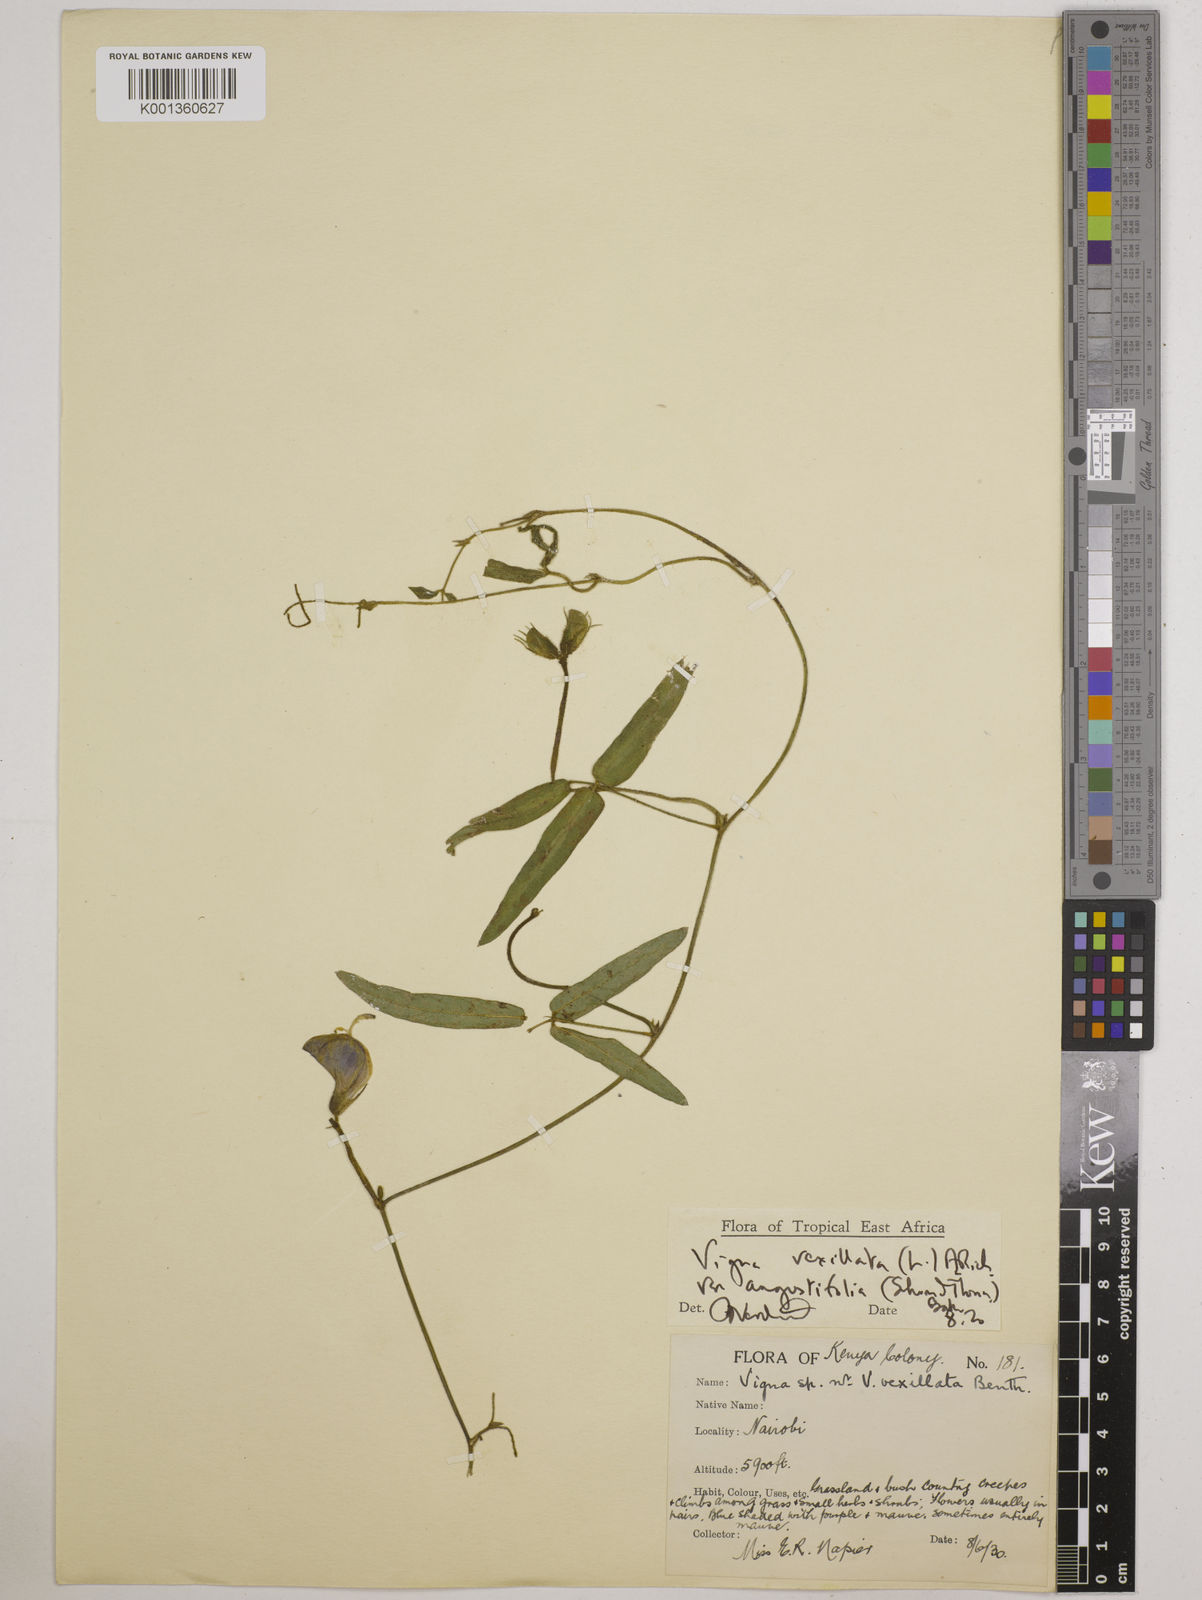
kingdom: Plantae
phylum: Tracheophyta
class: Magnoliopsida
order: Fabales
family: Fabaceae
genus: Vigna
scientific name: Vigna vexillata
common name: Zombi pea
